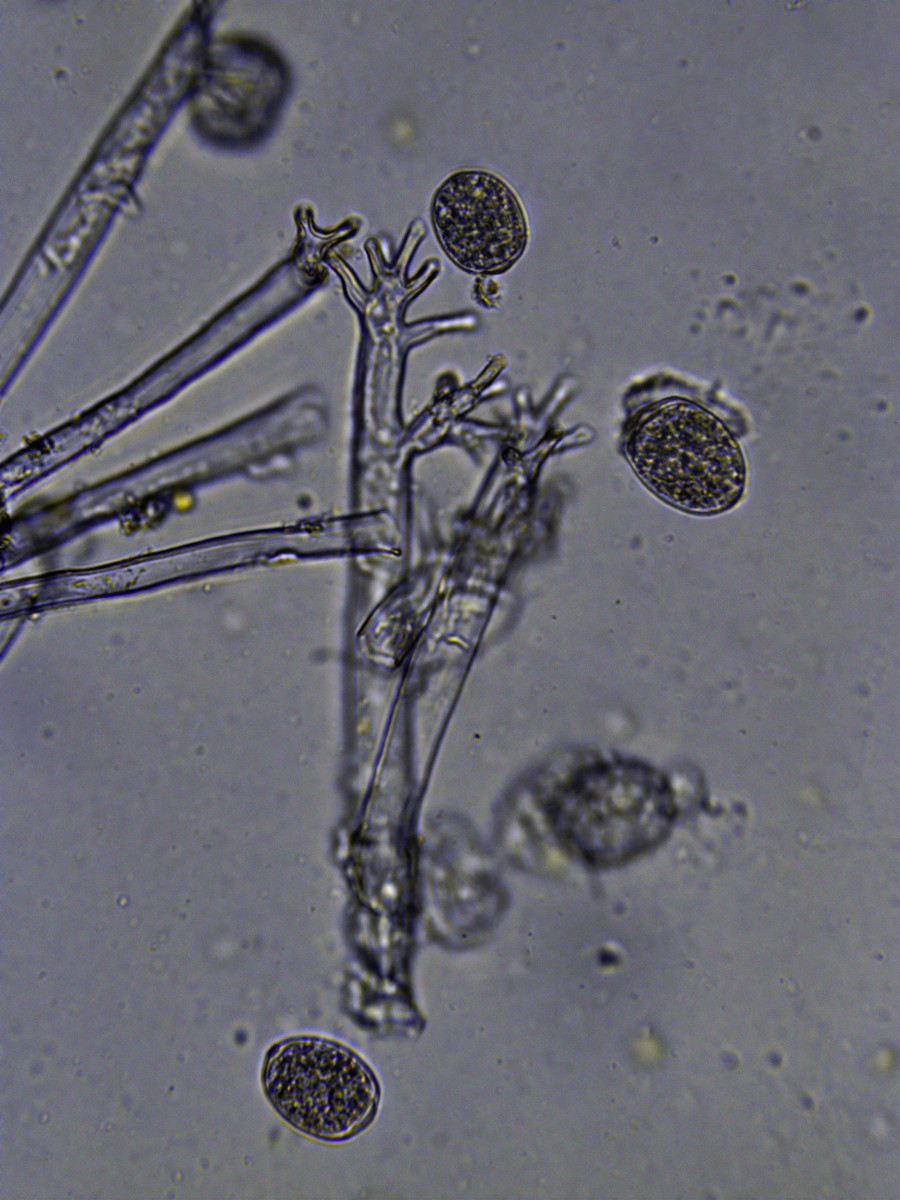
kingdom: Chromista
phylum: Oomycota
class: Peronosporea
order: Peronosporales
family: Peronosporaceae
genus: Plasmoverna
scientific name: Plasmoverna pygmaea
